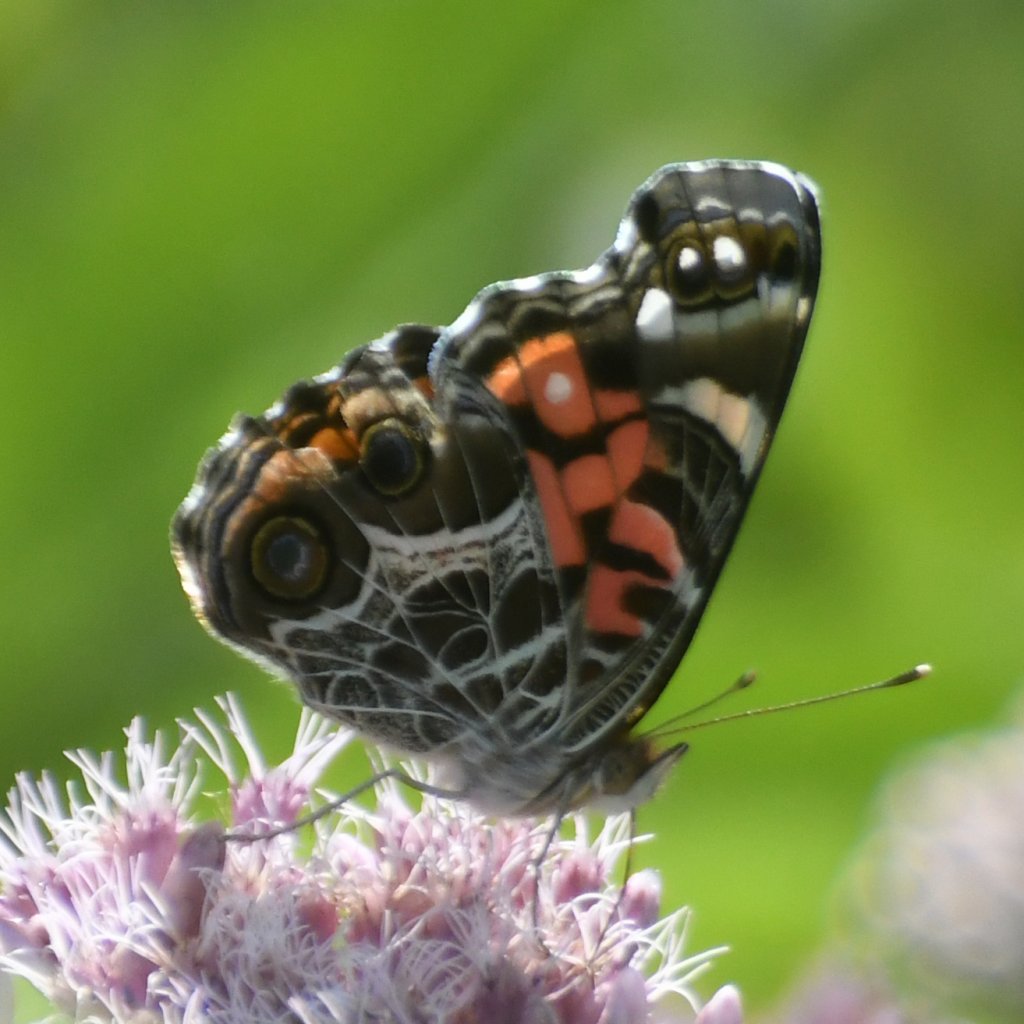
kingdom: Animalia
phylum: Arthropoda
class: Insecta
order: Lepidoptera
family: Nymphalidae
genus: Vanessa
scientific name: Vanessa virginiensis
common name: American Lady
